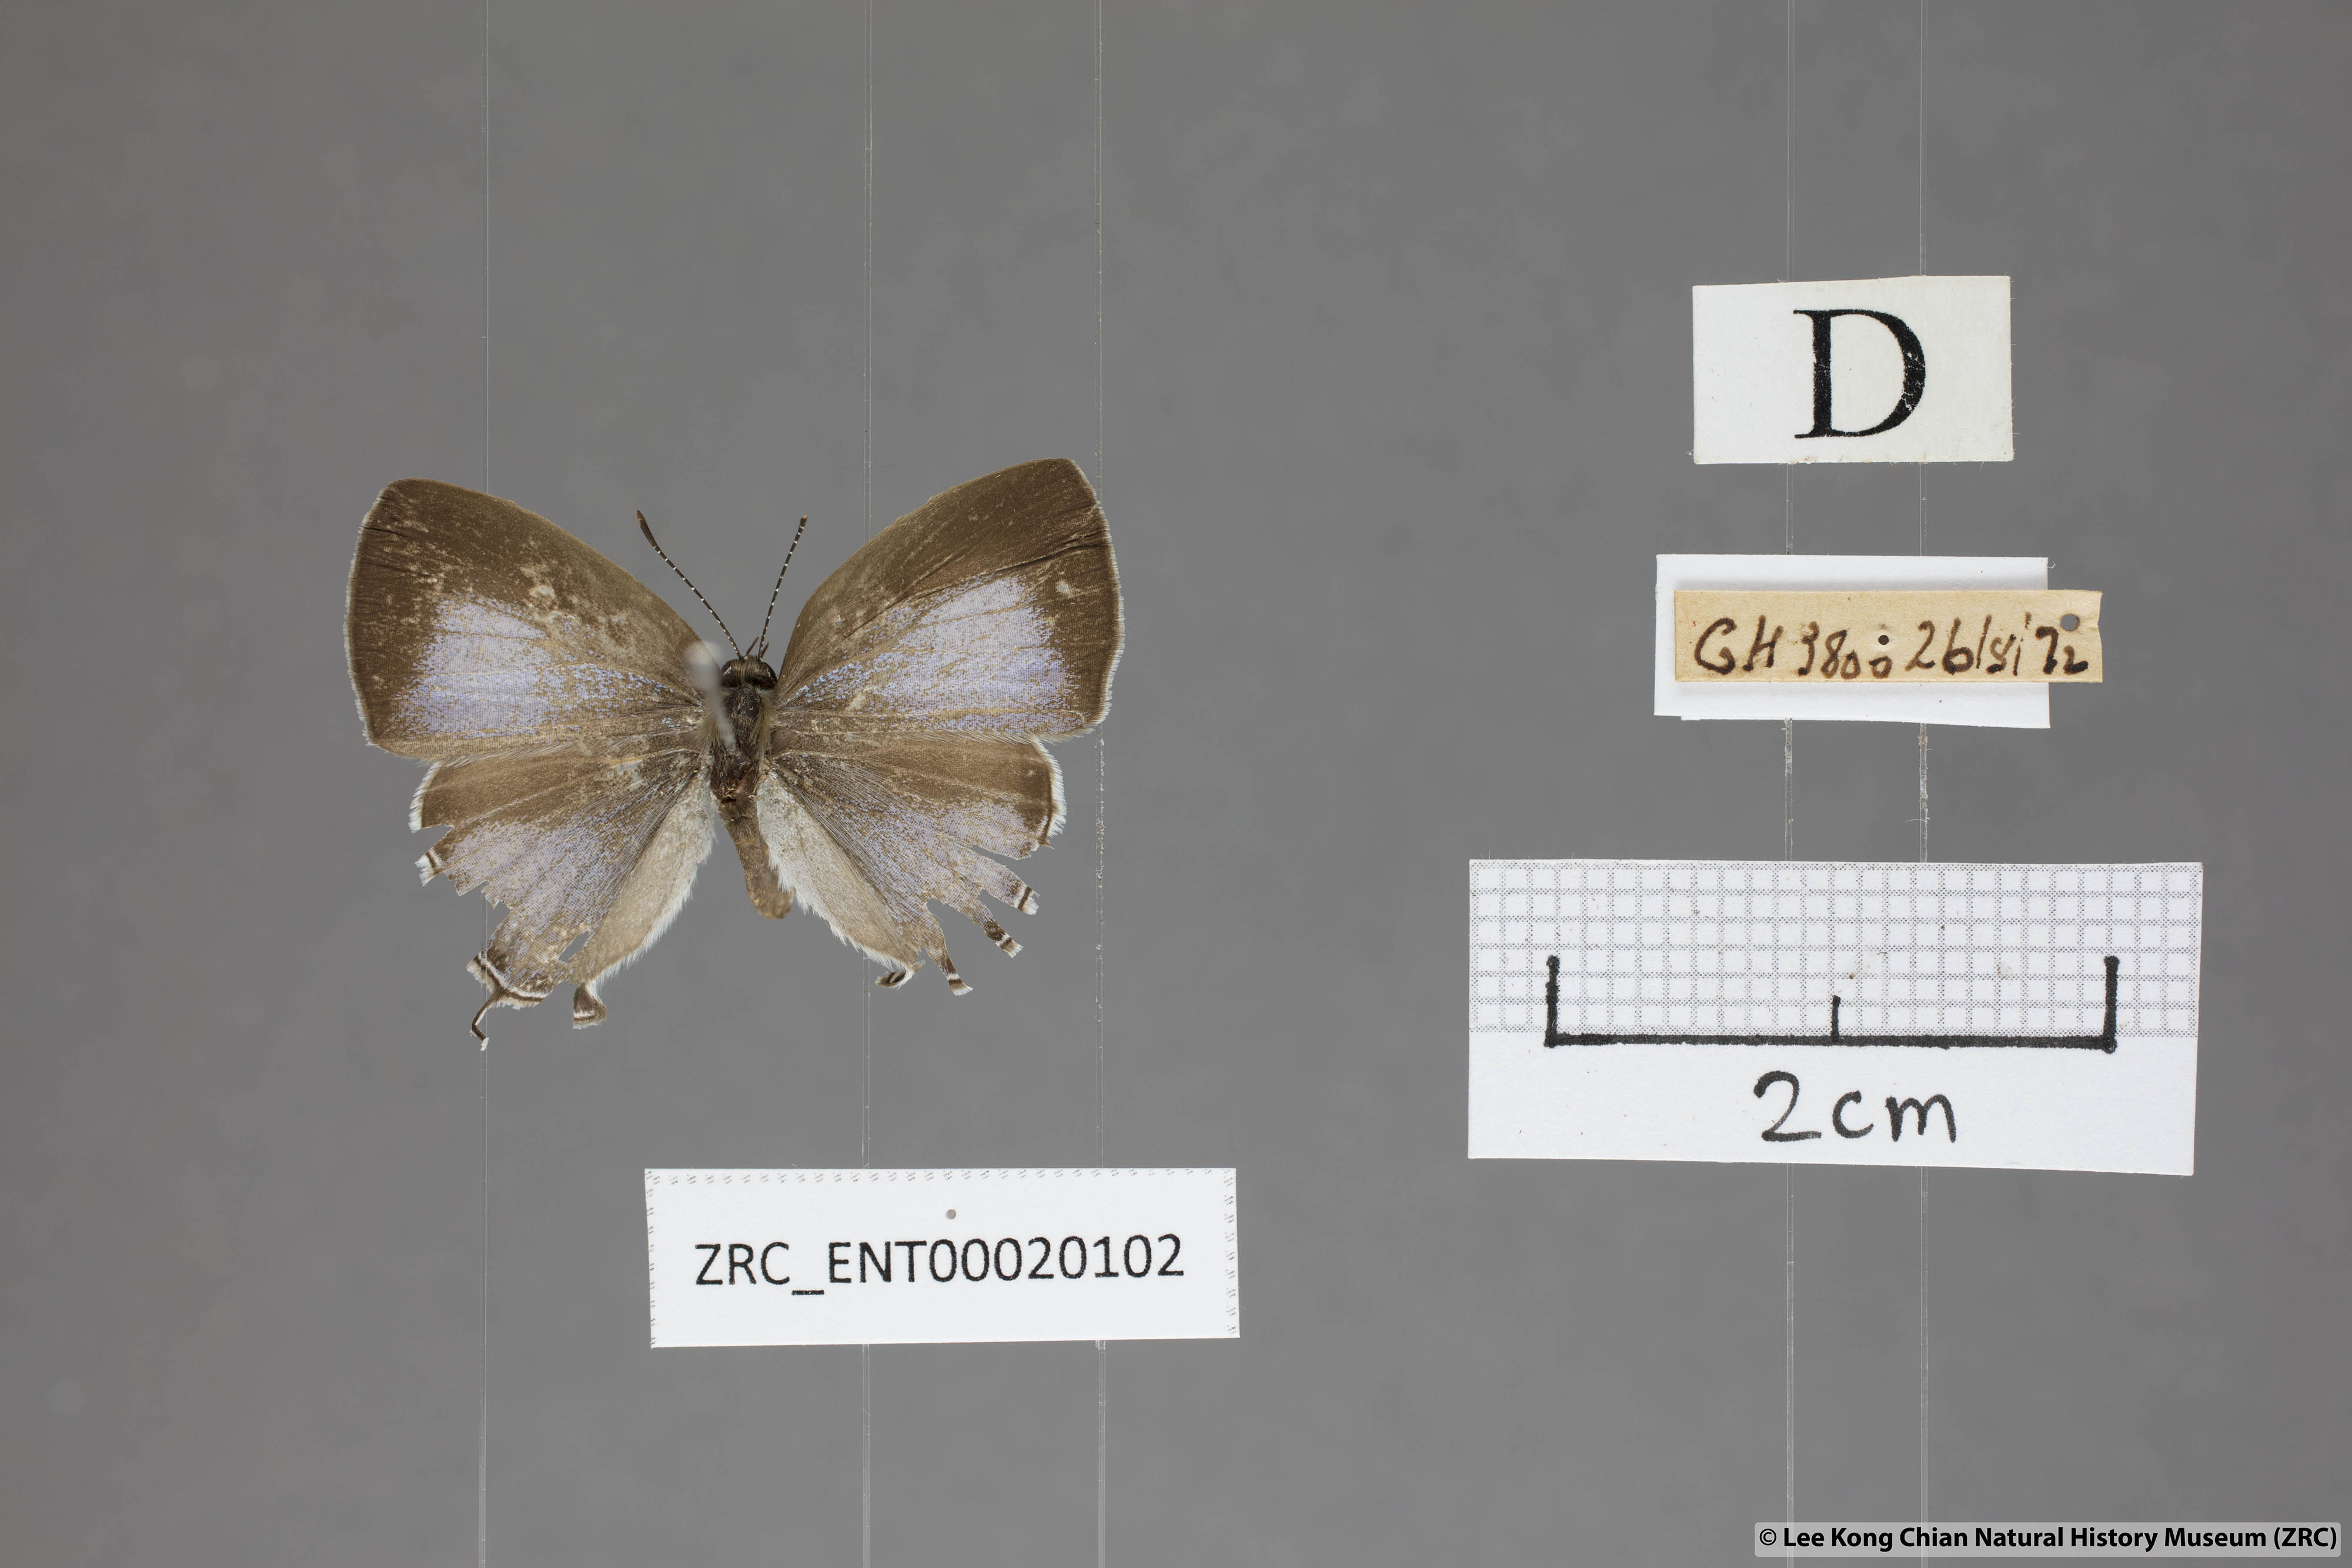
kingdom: Animalia
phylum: Arthropoda
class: Insecta
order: Lepidoptera
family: Lycaenidae
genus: Chliaria
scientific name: Chliaria pahanga
